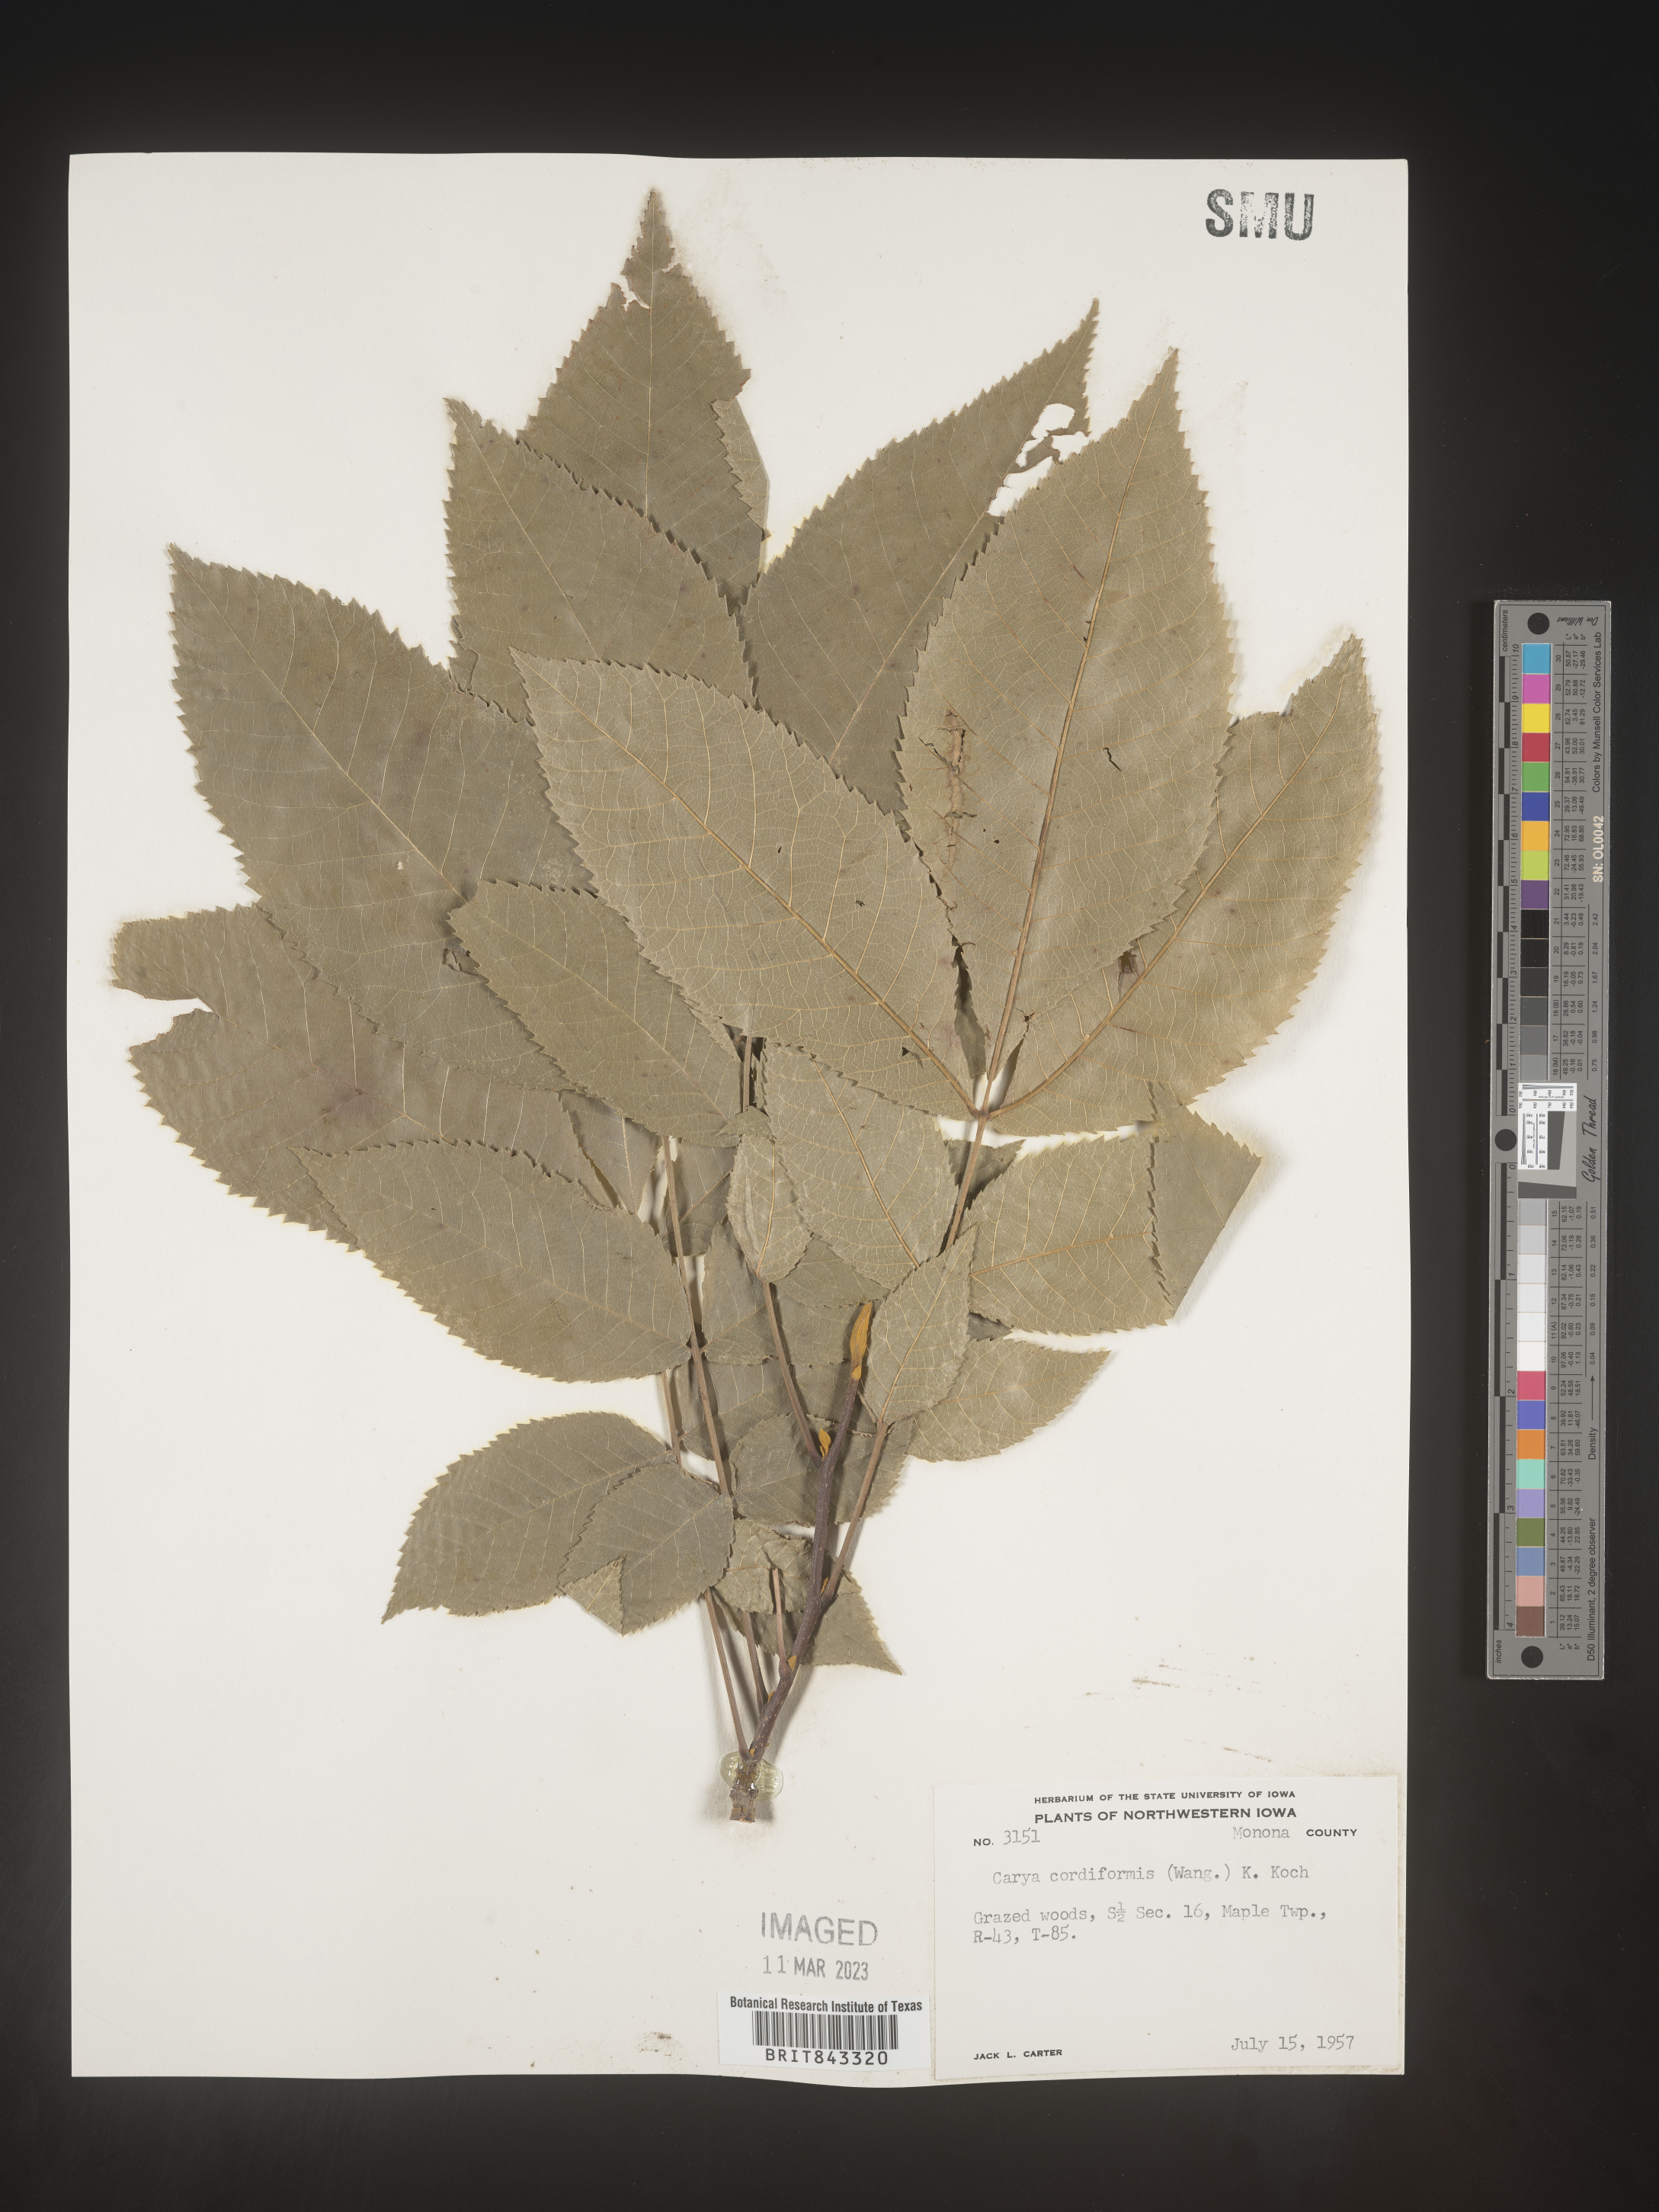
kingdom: Plantae
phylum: Tracheophyta
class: Magnoliopsida
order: Fagales
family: Juglandaceae
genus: Carya
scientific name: Carya cordiformis
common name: Bitternut hickory
